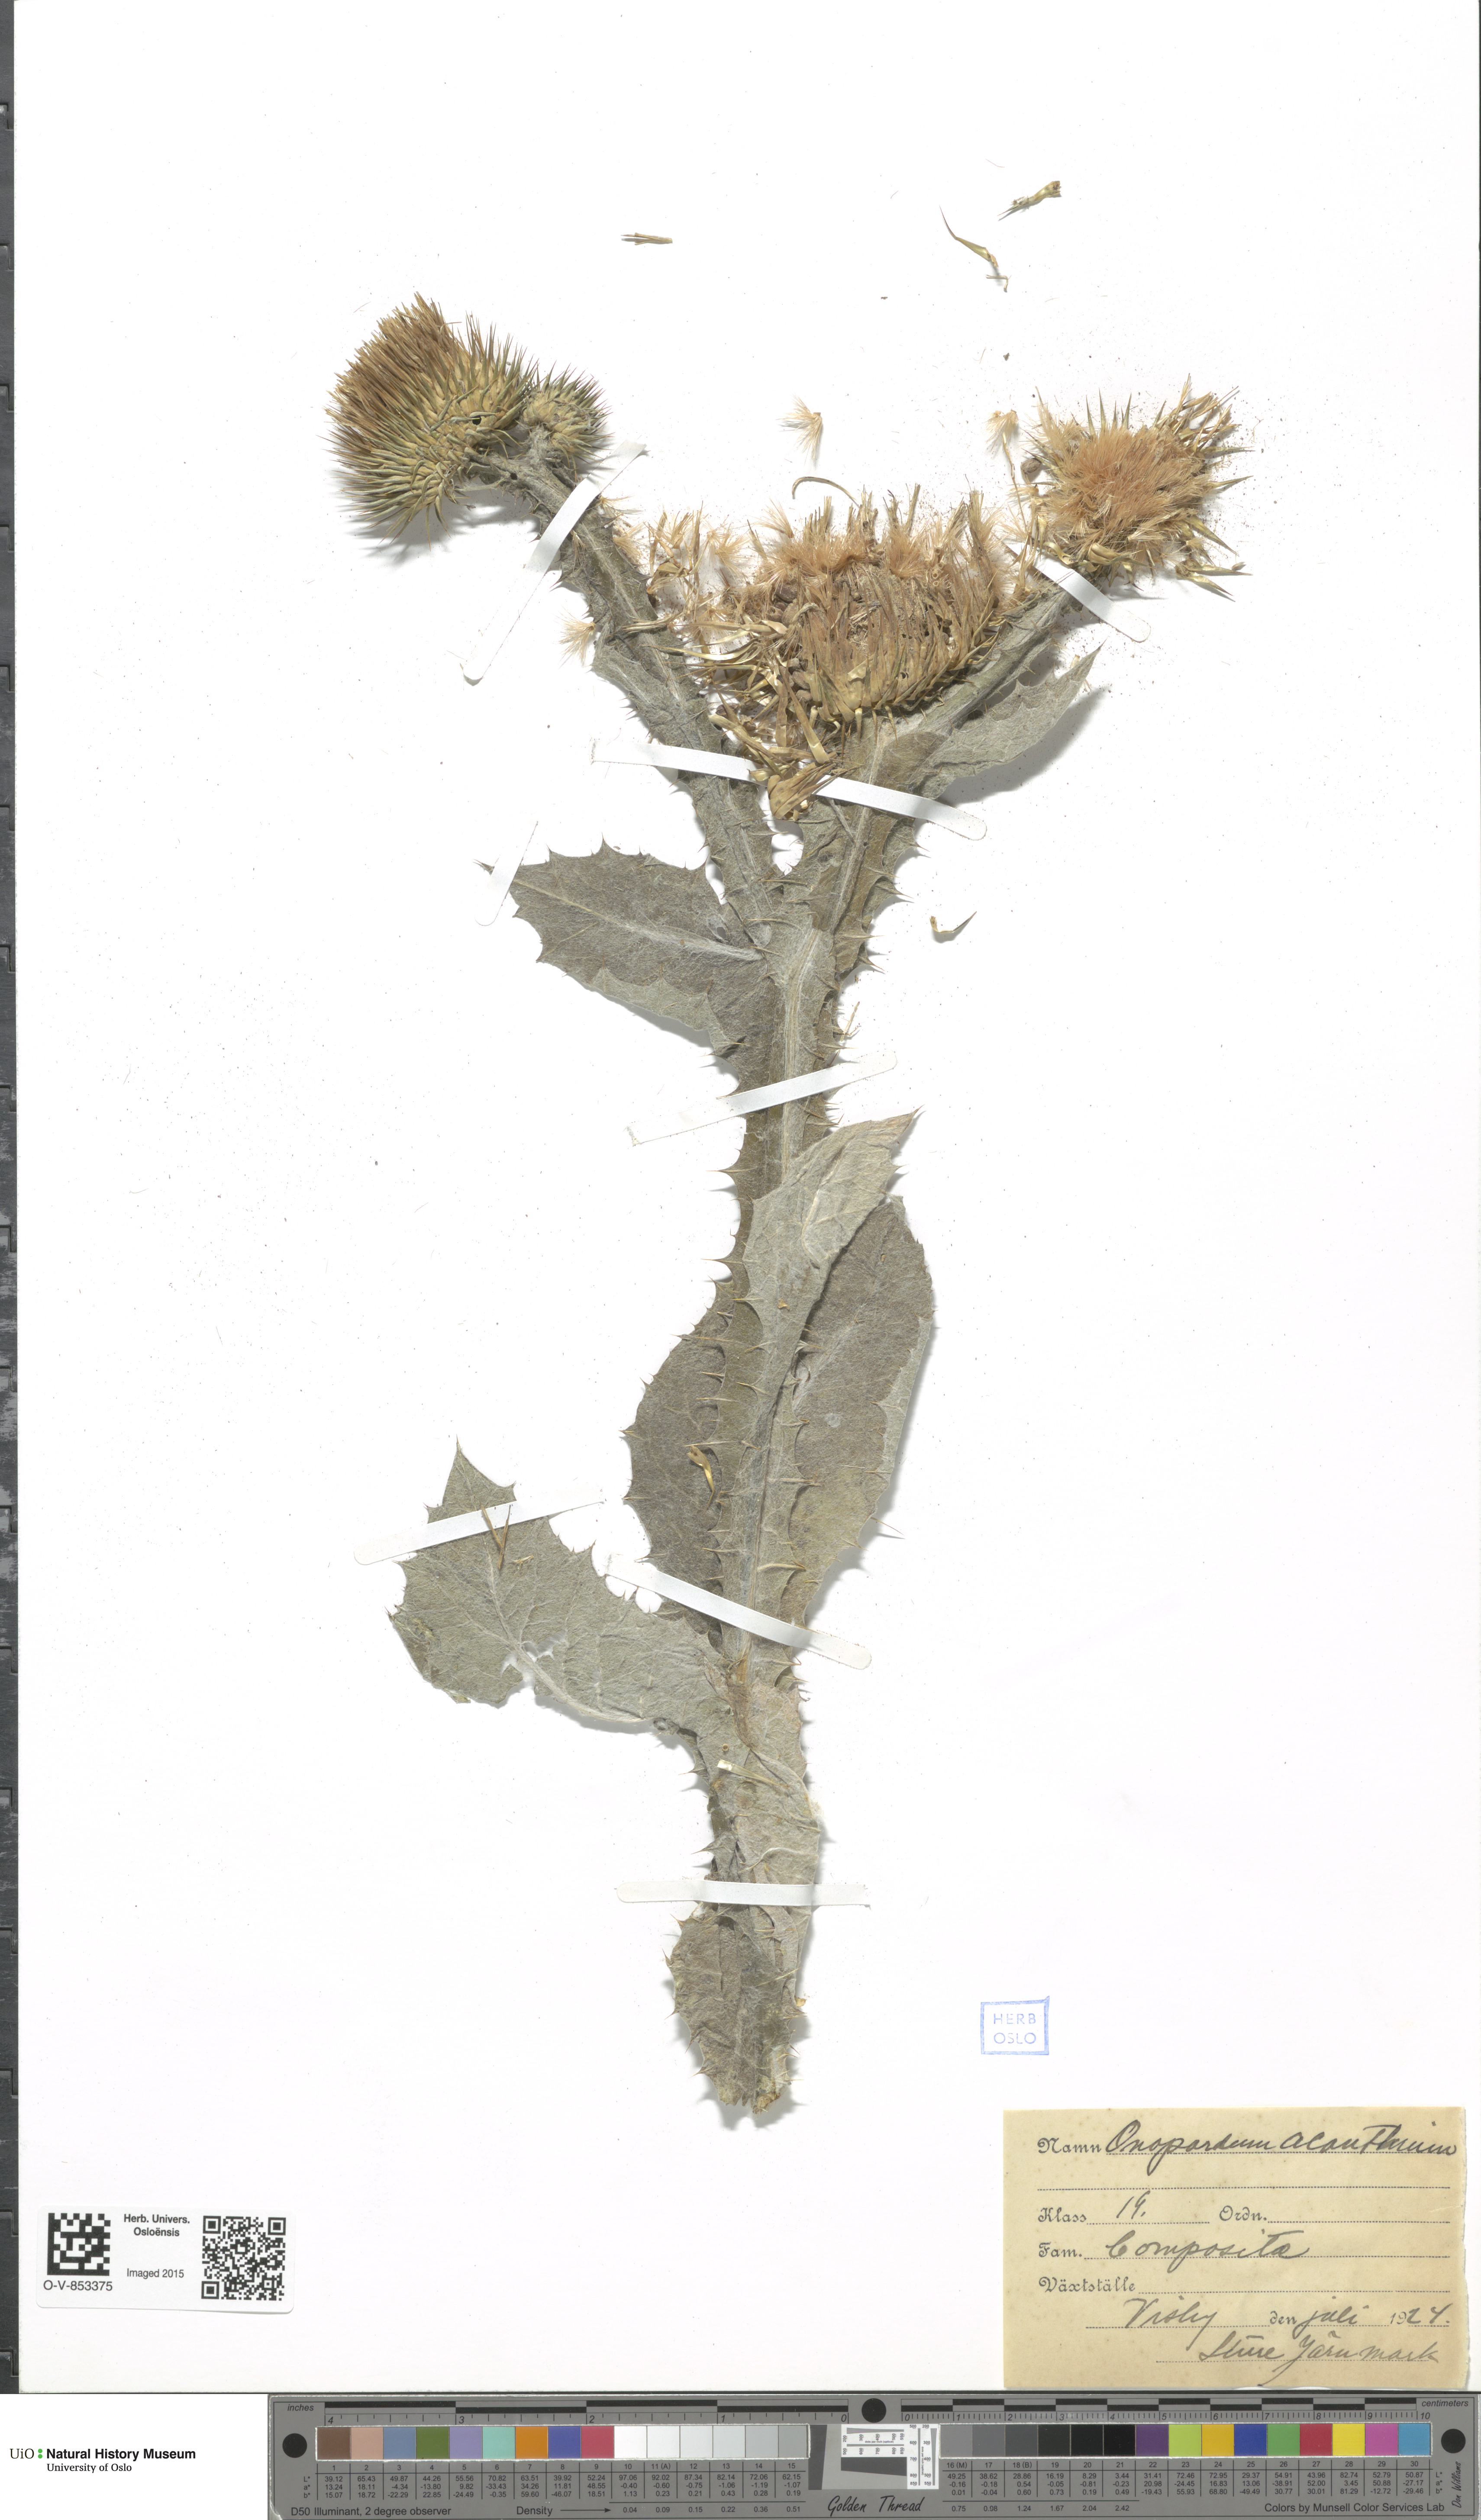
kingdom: Plantae
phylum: Tracheophyta
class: Magnoliopsida
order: Asterales
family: Asteraceae
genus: Onopordum
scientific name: Onopordum acanthium
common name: Scotch thistle
